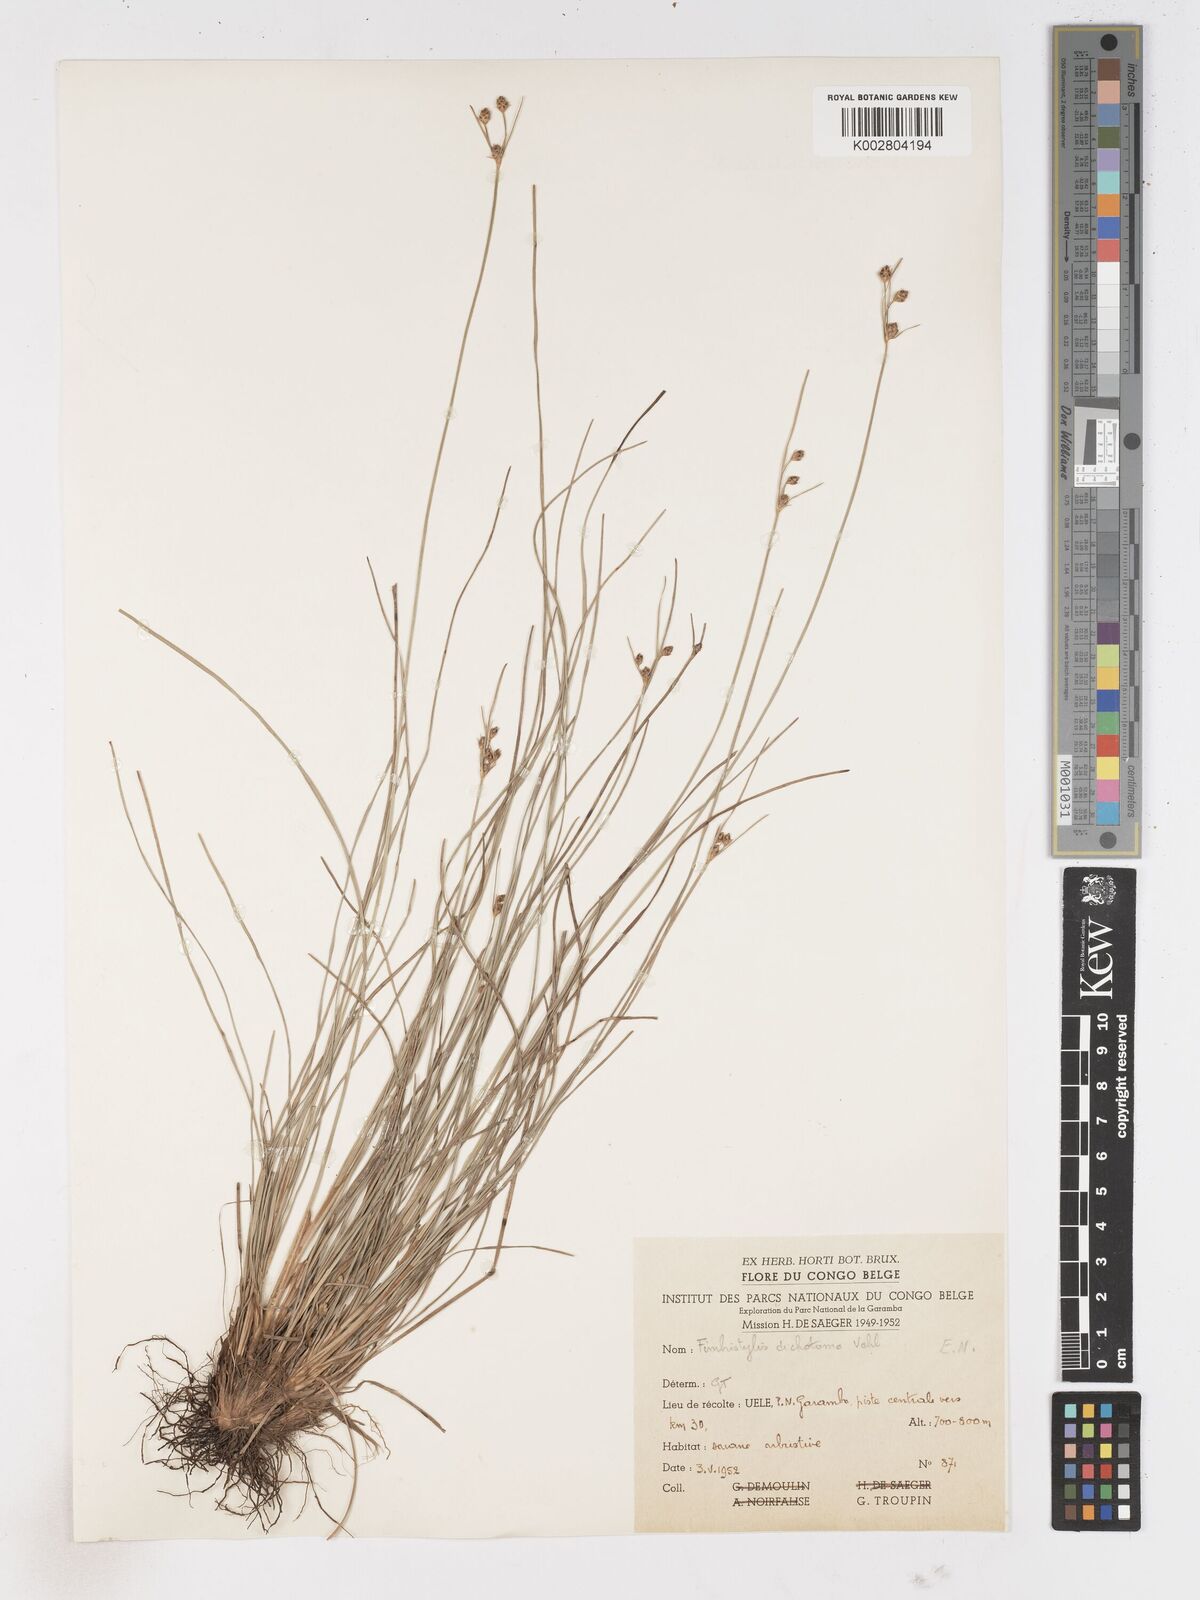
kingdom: Plantae
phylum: Tracheophyta
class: Liliopsida
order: Poales
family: Cyperaceae
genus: Fimbristylis
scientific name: Fimbristylis pilosa
